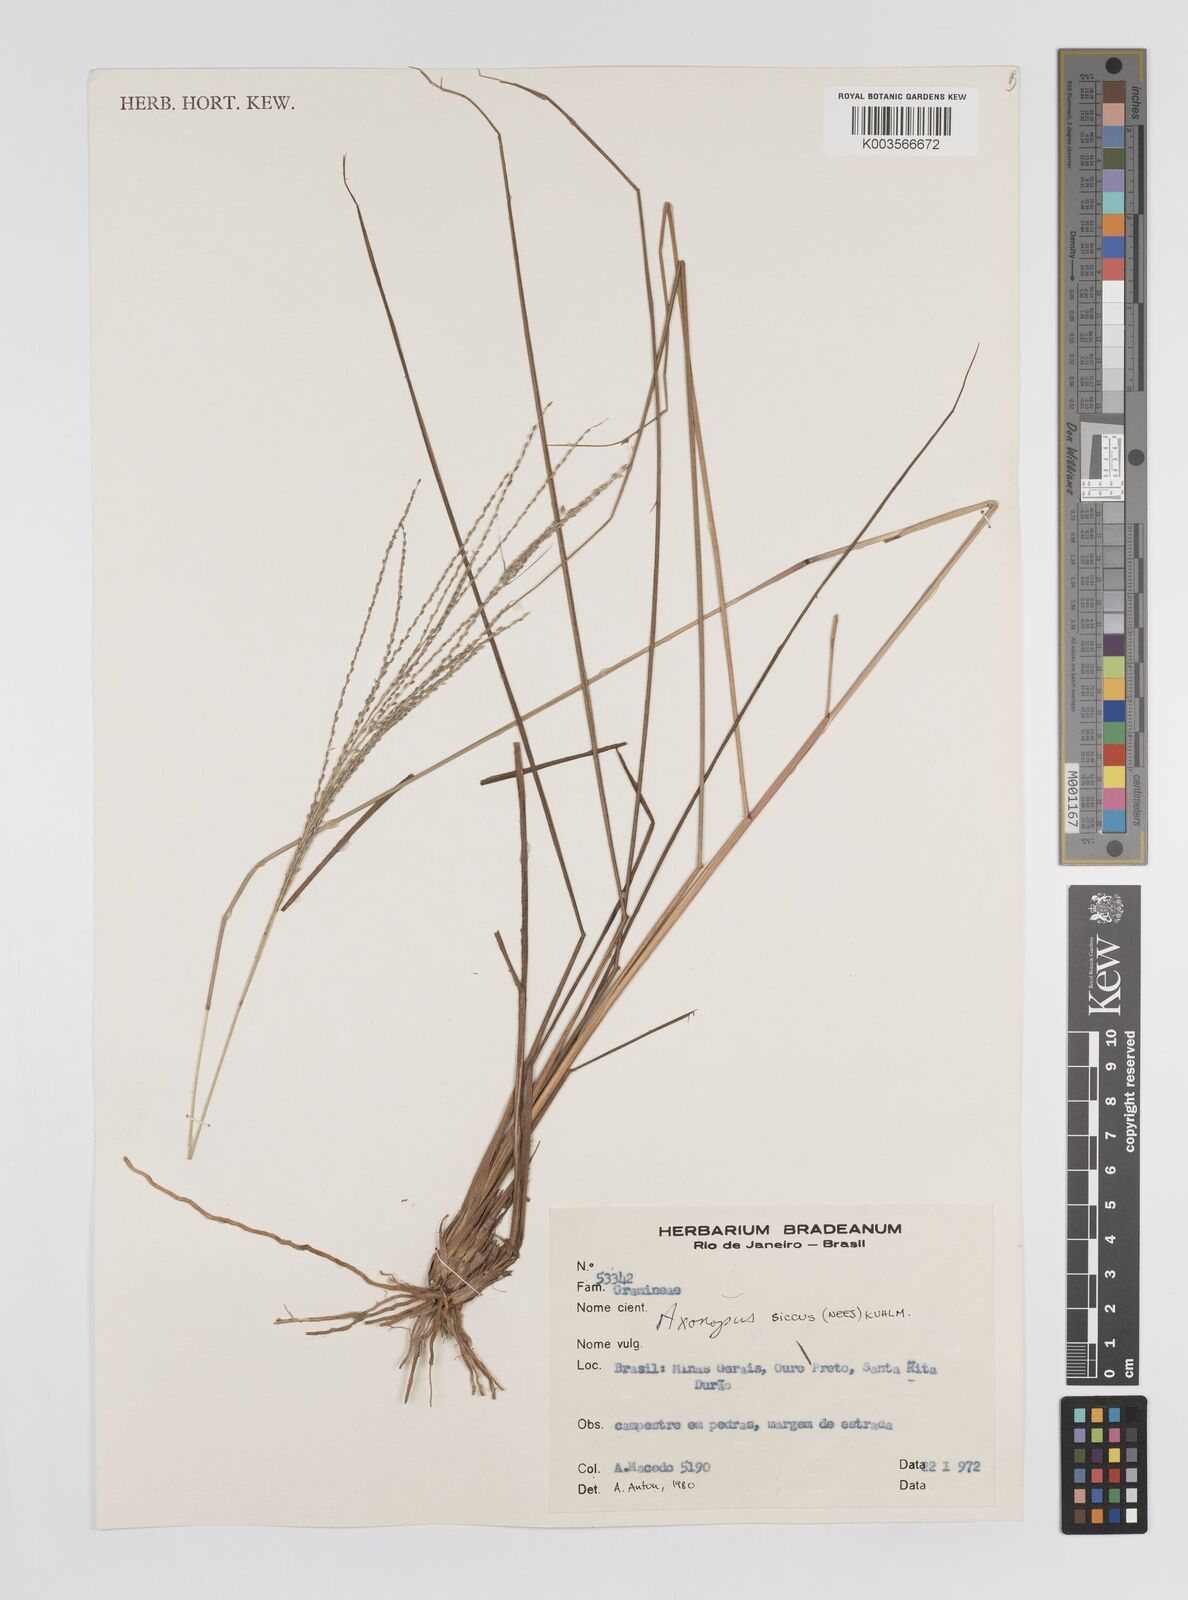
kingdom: Plantae
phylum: Tracheophyta
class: Liliopsida
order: Poales
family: Poaceae
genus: Axonopus
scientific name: Axonopus siccus
